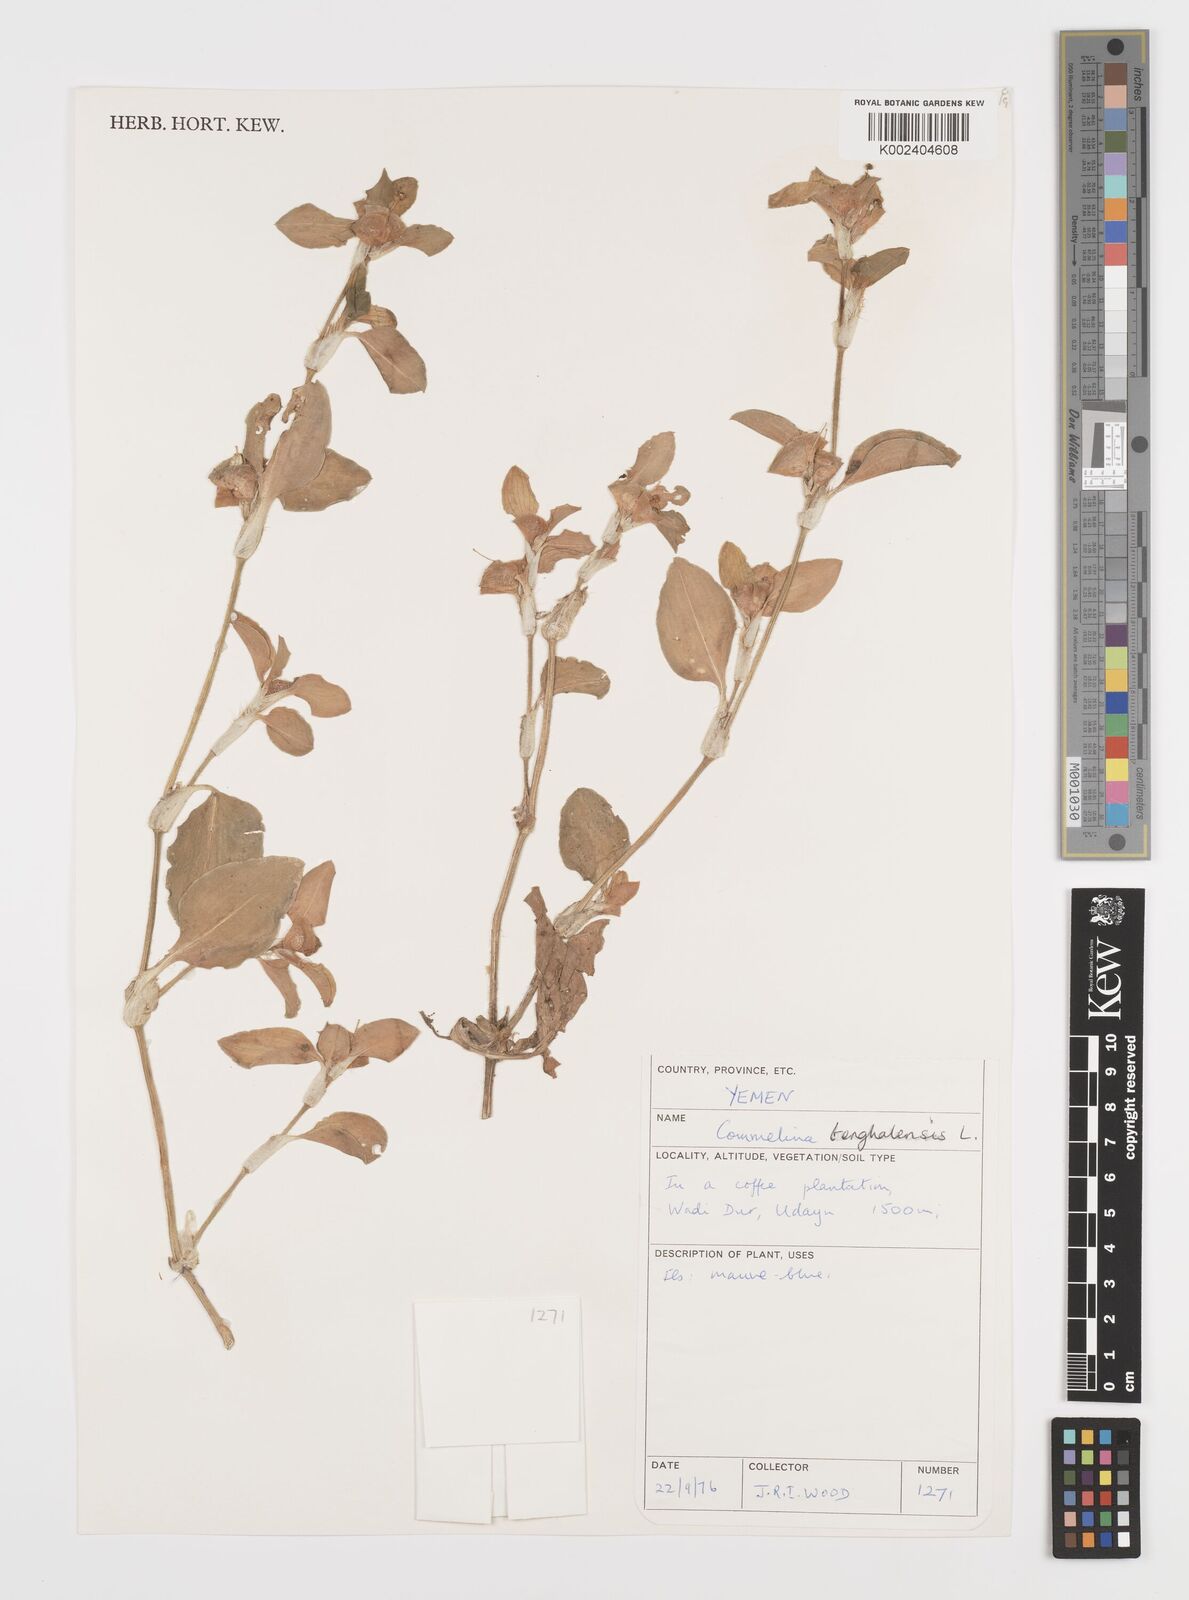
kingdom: Plantae
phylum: Tracheophyta
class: Liliopsida
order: Commelinales
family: Commelinaceae
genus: Commelina
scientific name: Commelina benghalensis
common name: Jio
